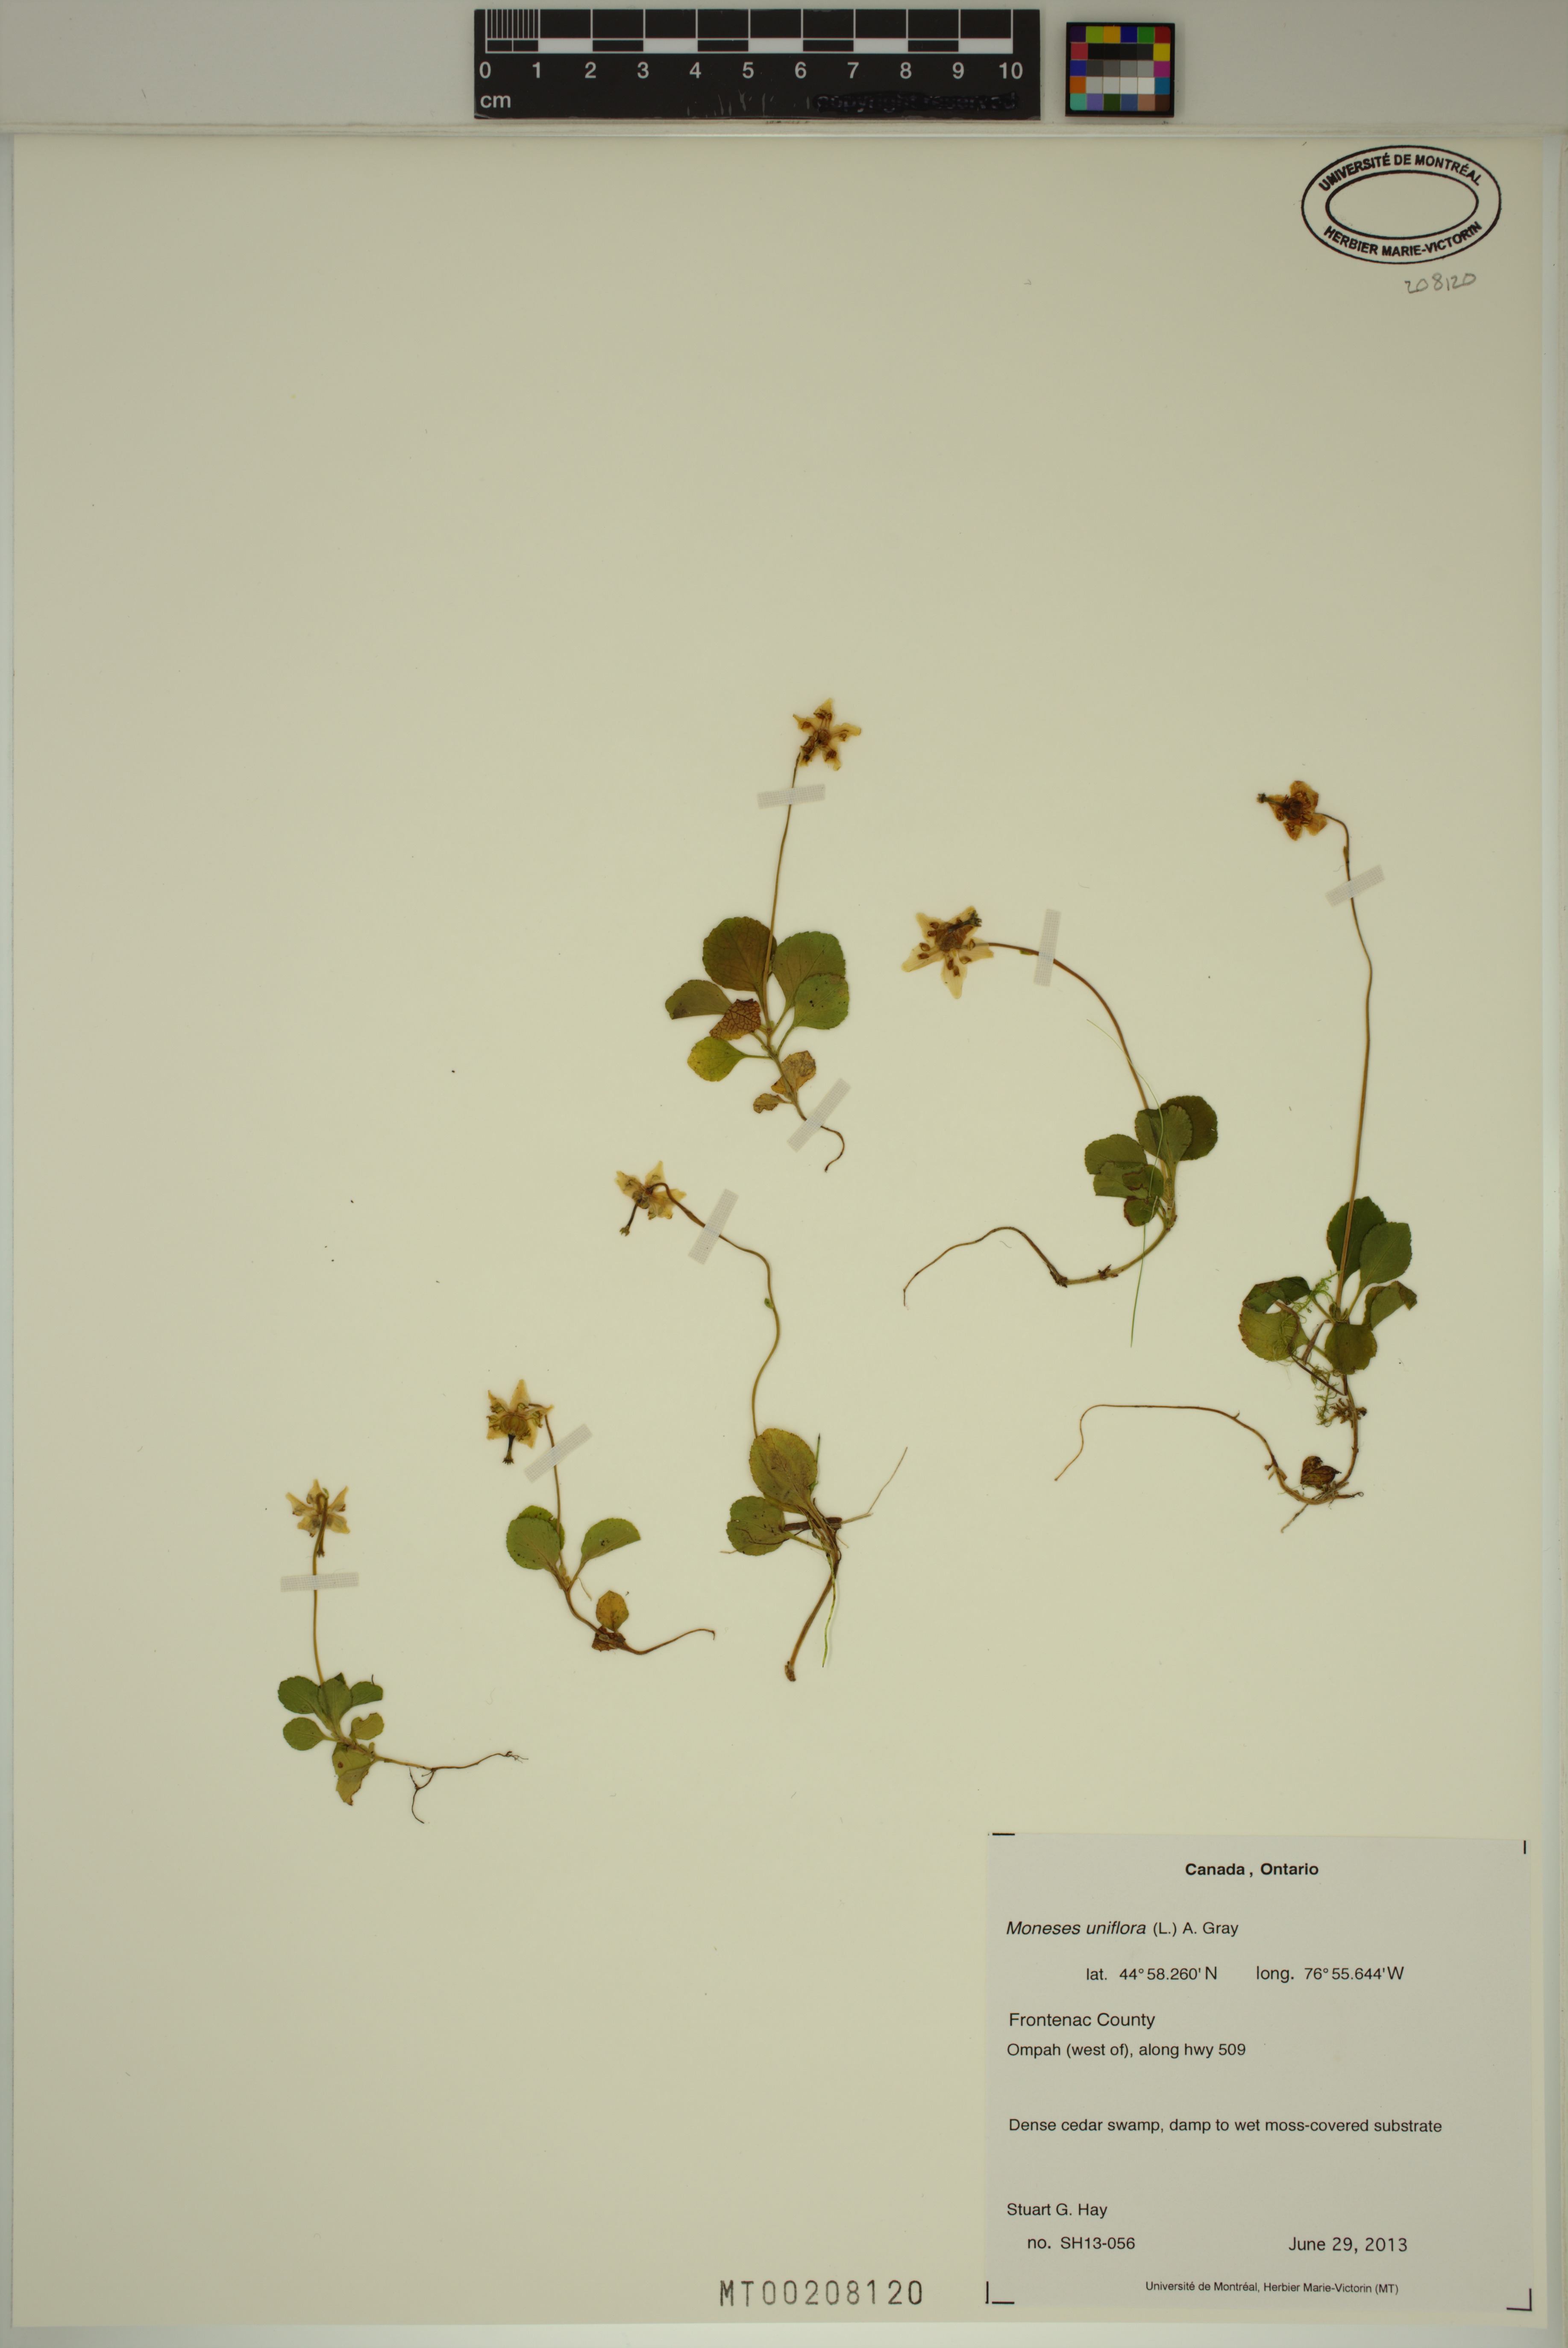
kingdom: Plantae
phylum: Tracheophyta
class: Magnoliopsida
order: Ericales
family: Ericaceae
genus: Moneses
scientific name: Moneses uniflora
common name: One-flowered wintergreen
